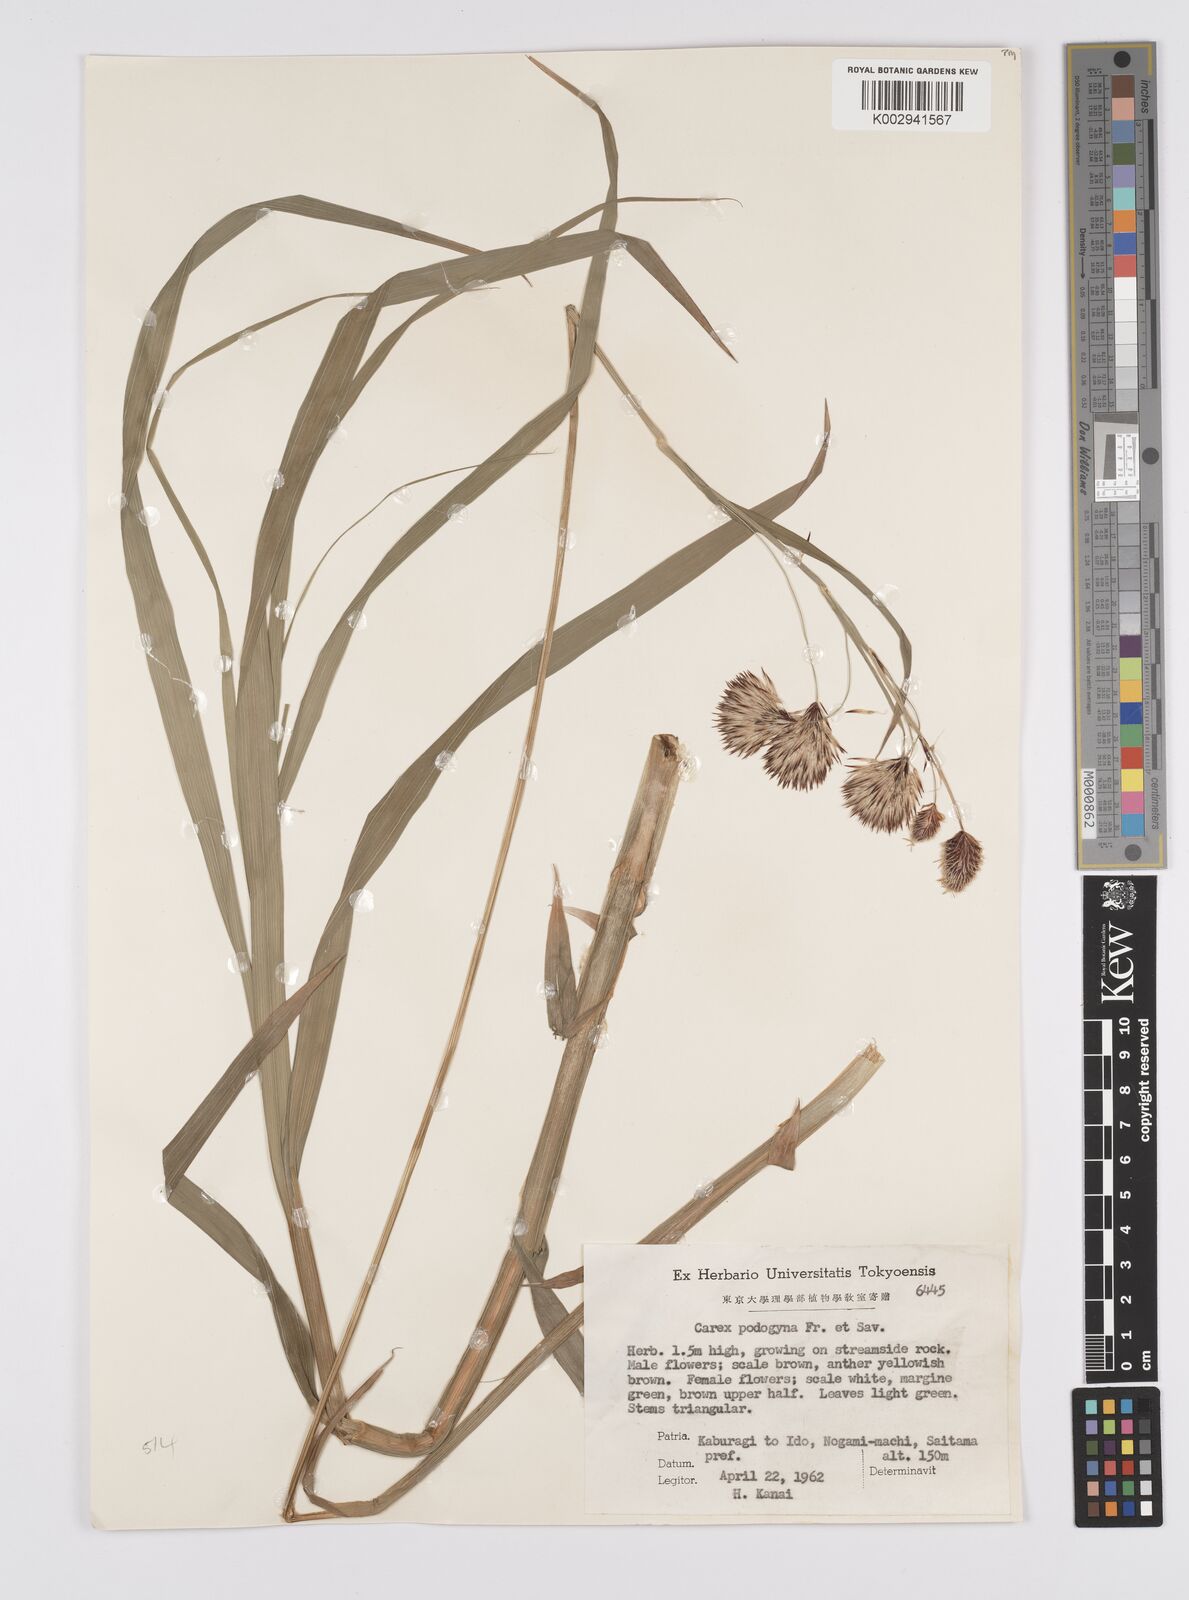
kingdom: Plantae
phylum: Tracheophyta
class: Liliopsida
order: Poales
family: Cyperaceae
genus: Carex
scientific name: Carex podogyna
